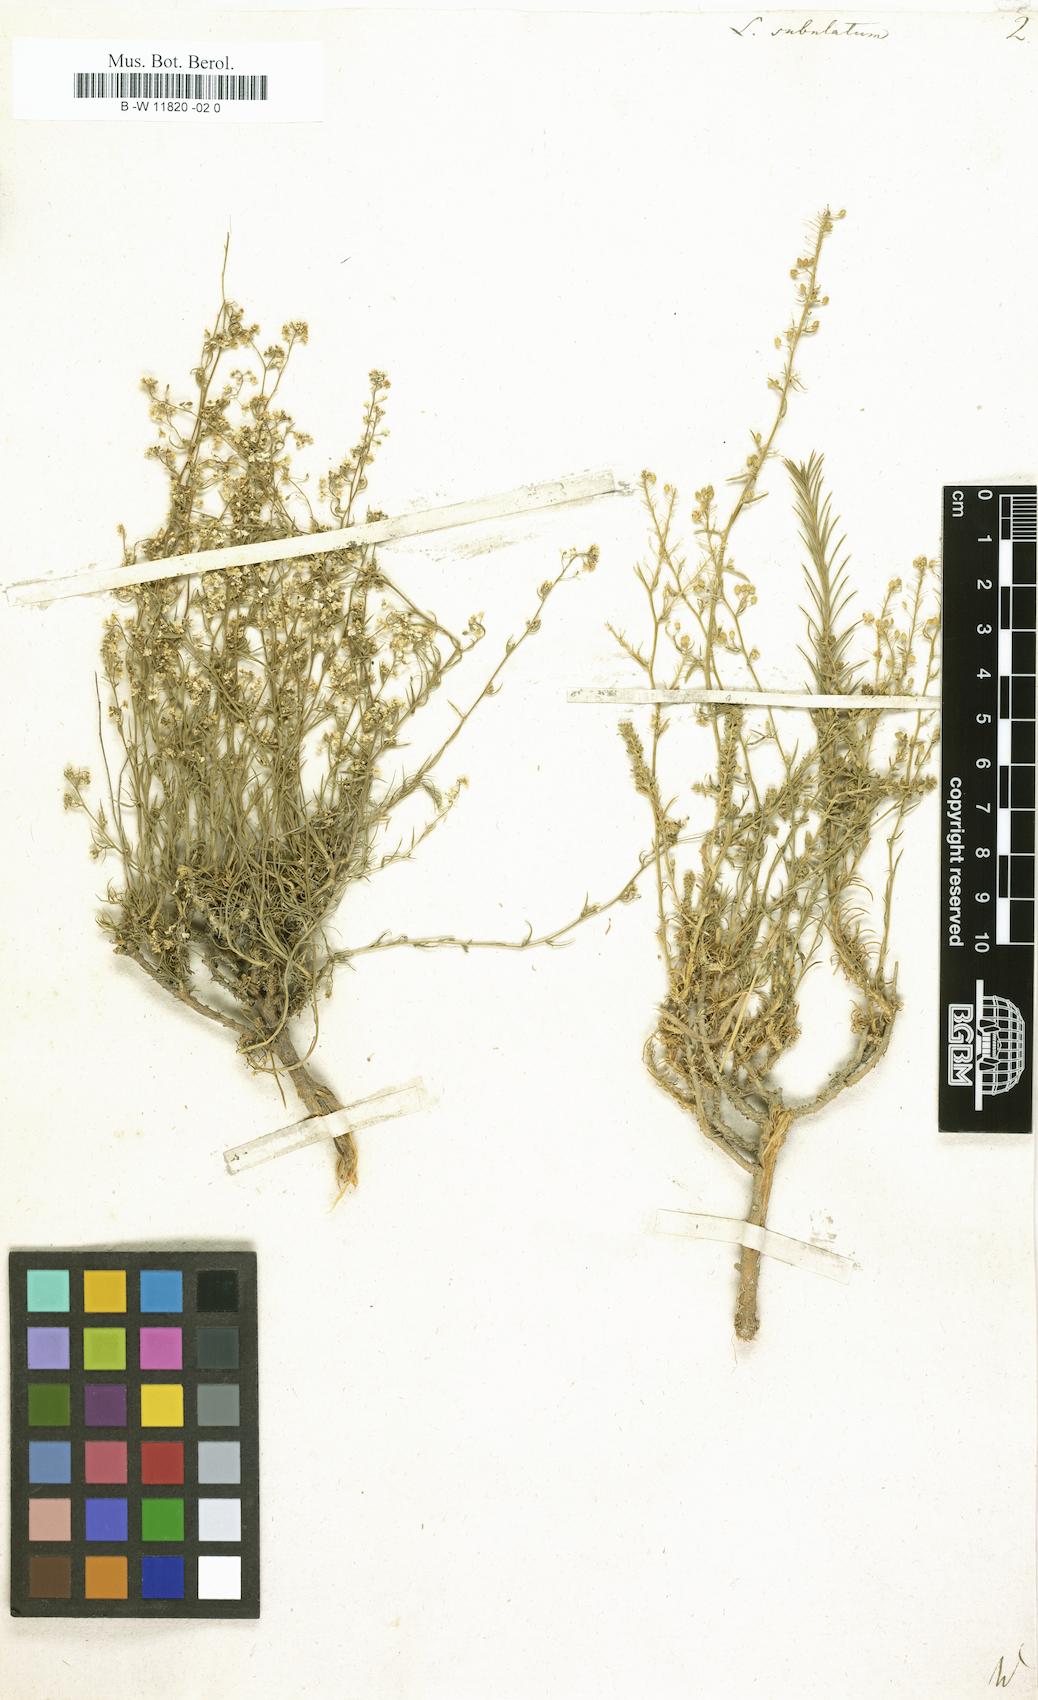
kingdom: Plantae
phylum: Tracheophyta
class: Magnoliopsida
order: Brassicales
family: Brassicaceae
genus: Lepidium
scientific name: Lepidium subulatum
